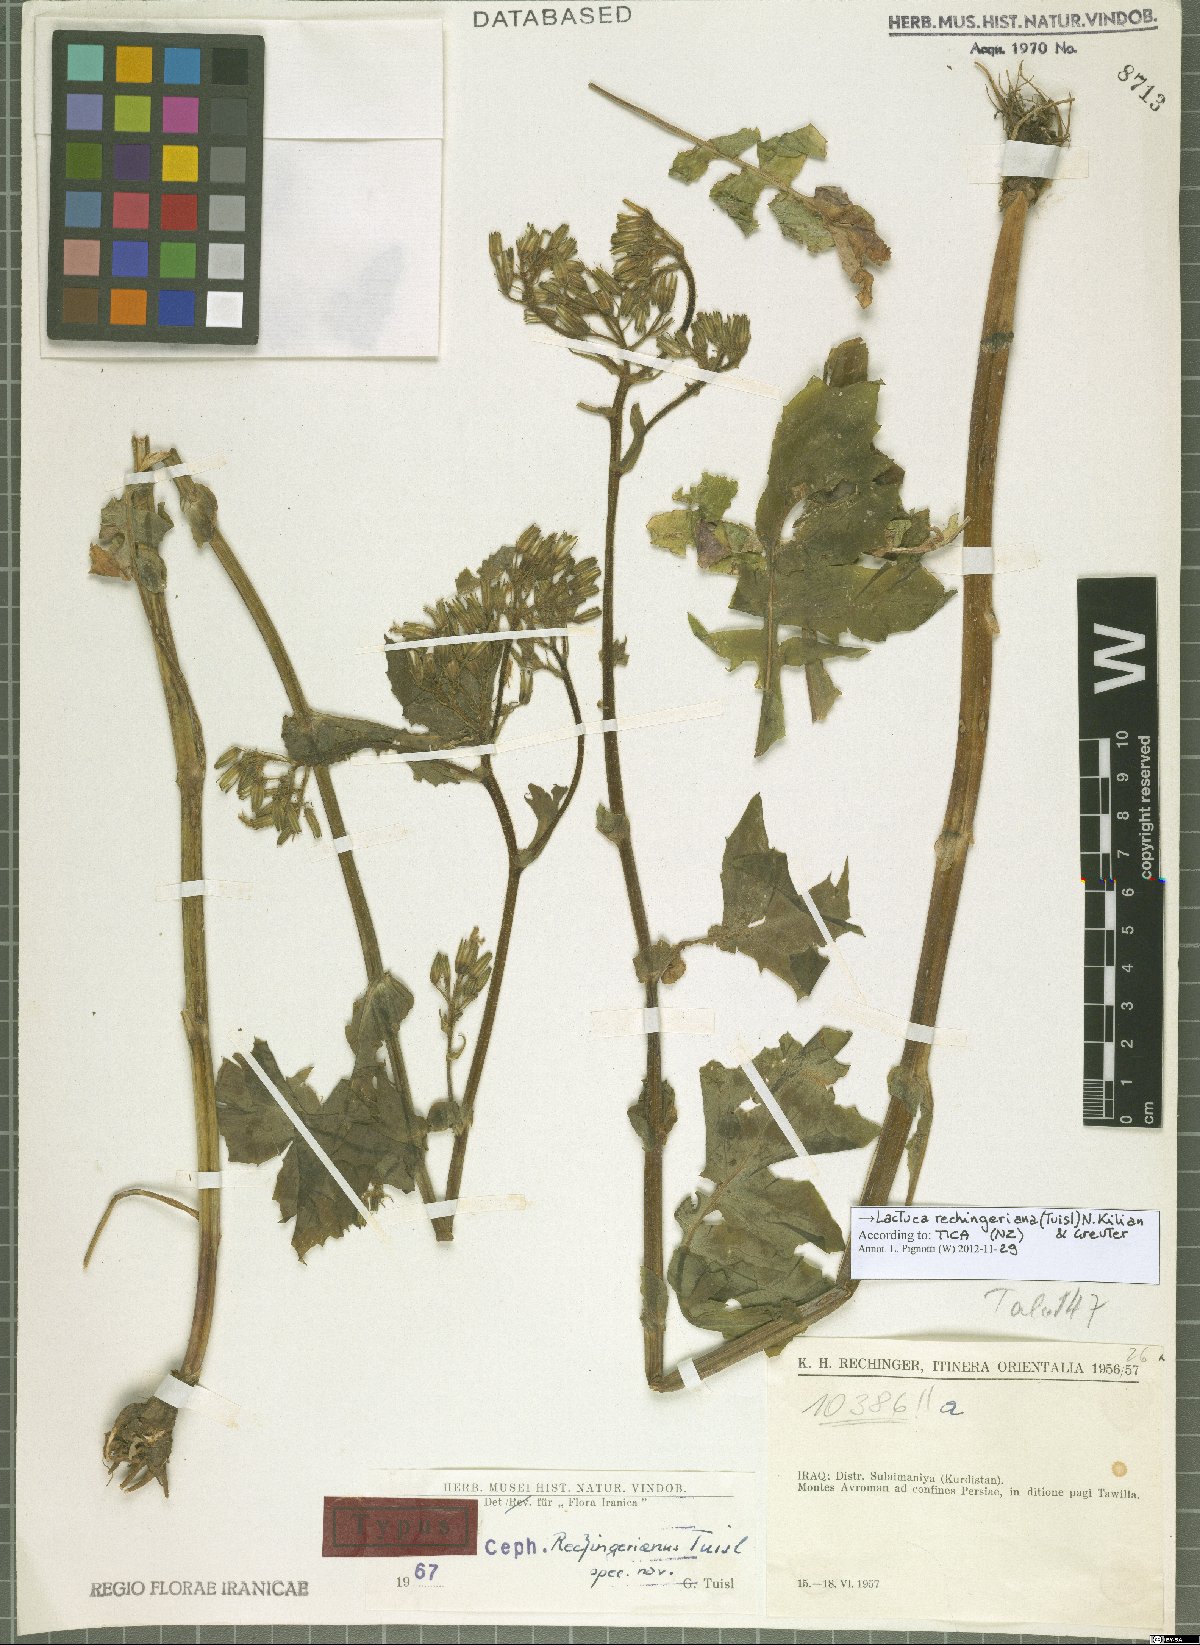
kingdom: Plantae
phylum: Tracheophyta
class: Magnoliopsida
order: Asterales
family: Asteraceae
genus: Cicerbita
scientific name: Cicerbita rechingeriana
